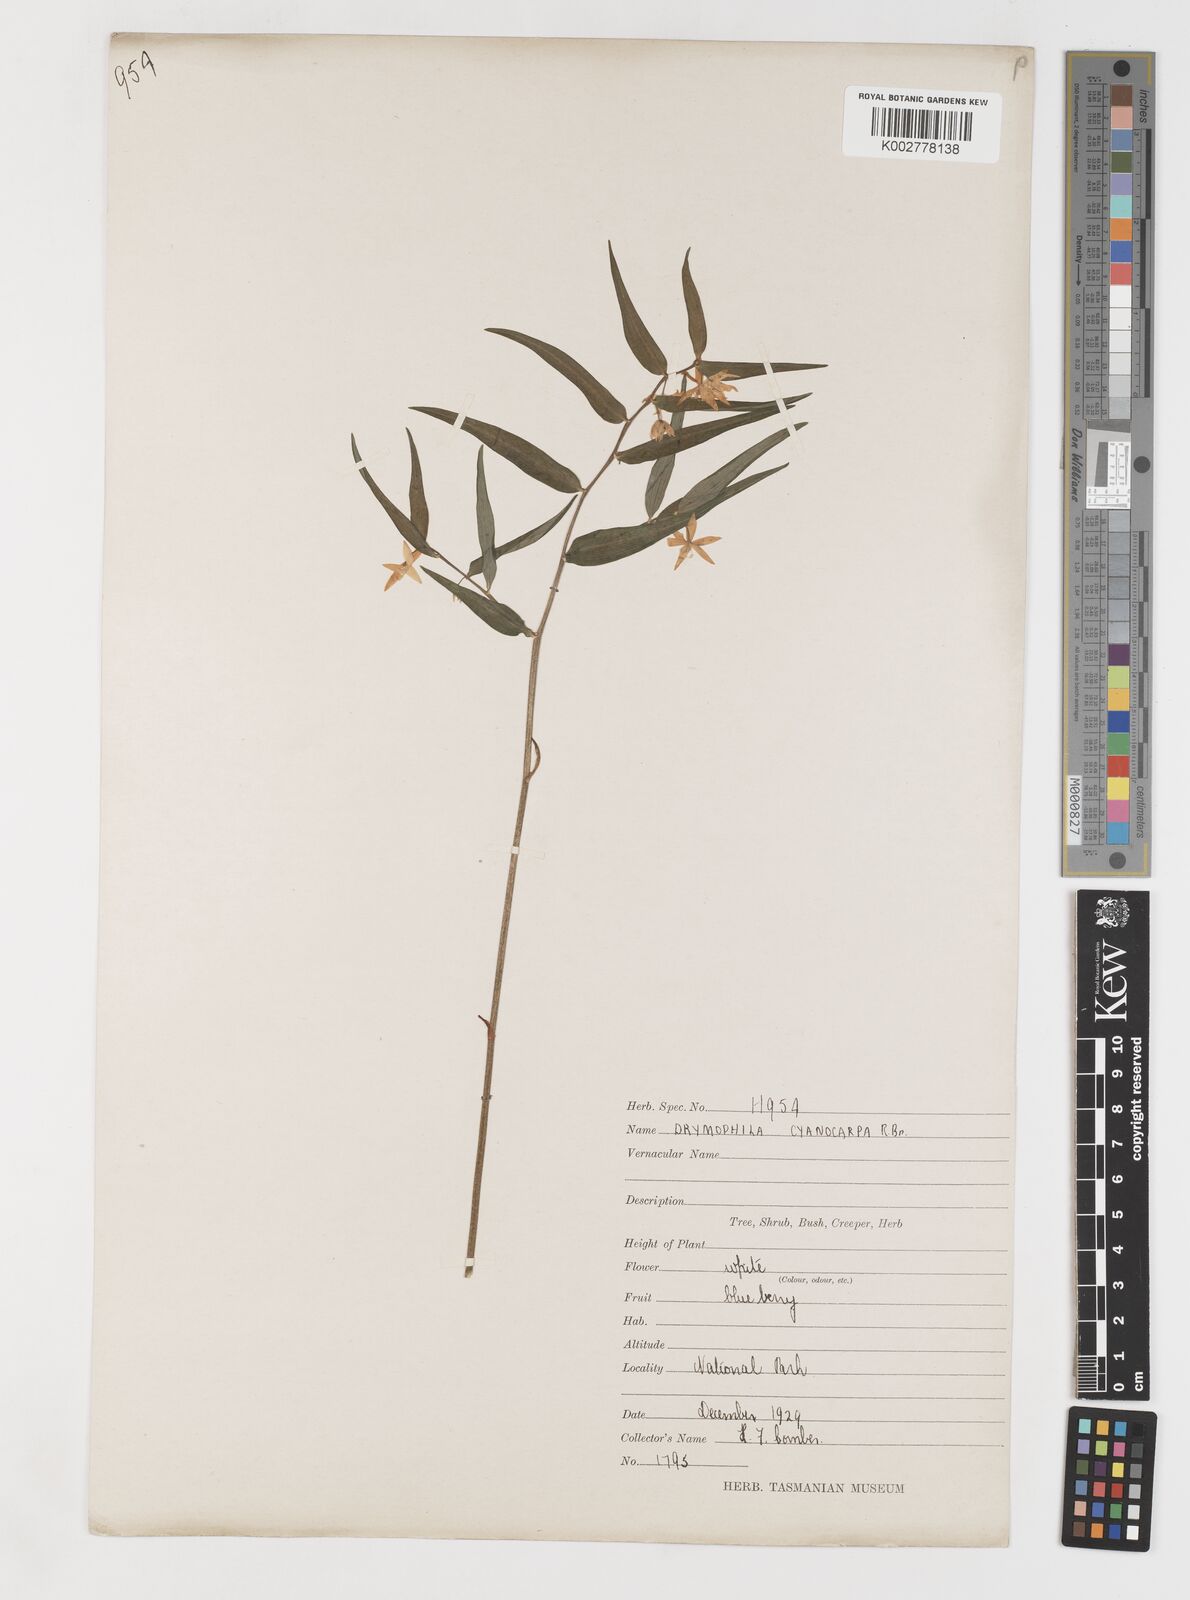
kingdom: Plantae
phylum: Tracheophyta
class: Liliopsida
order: Liliales
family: Alstroemeriaceae
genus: Drymophila
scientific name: Drymophila cyanocarpa
